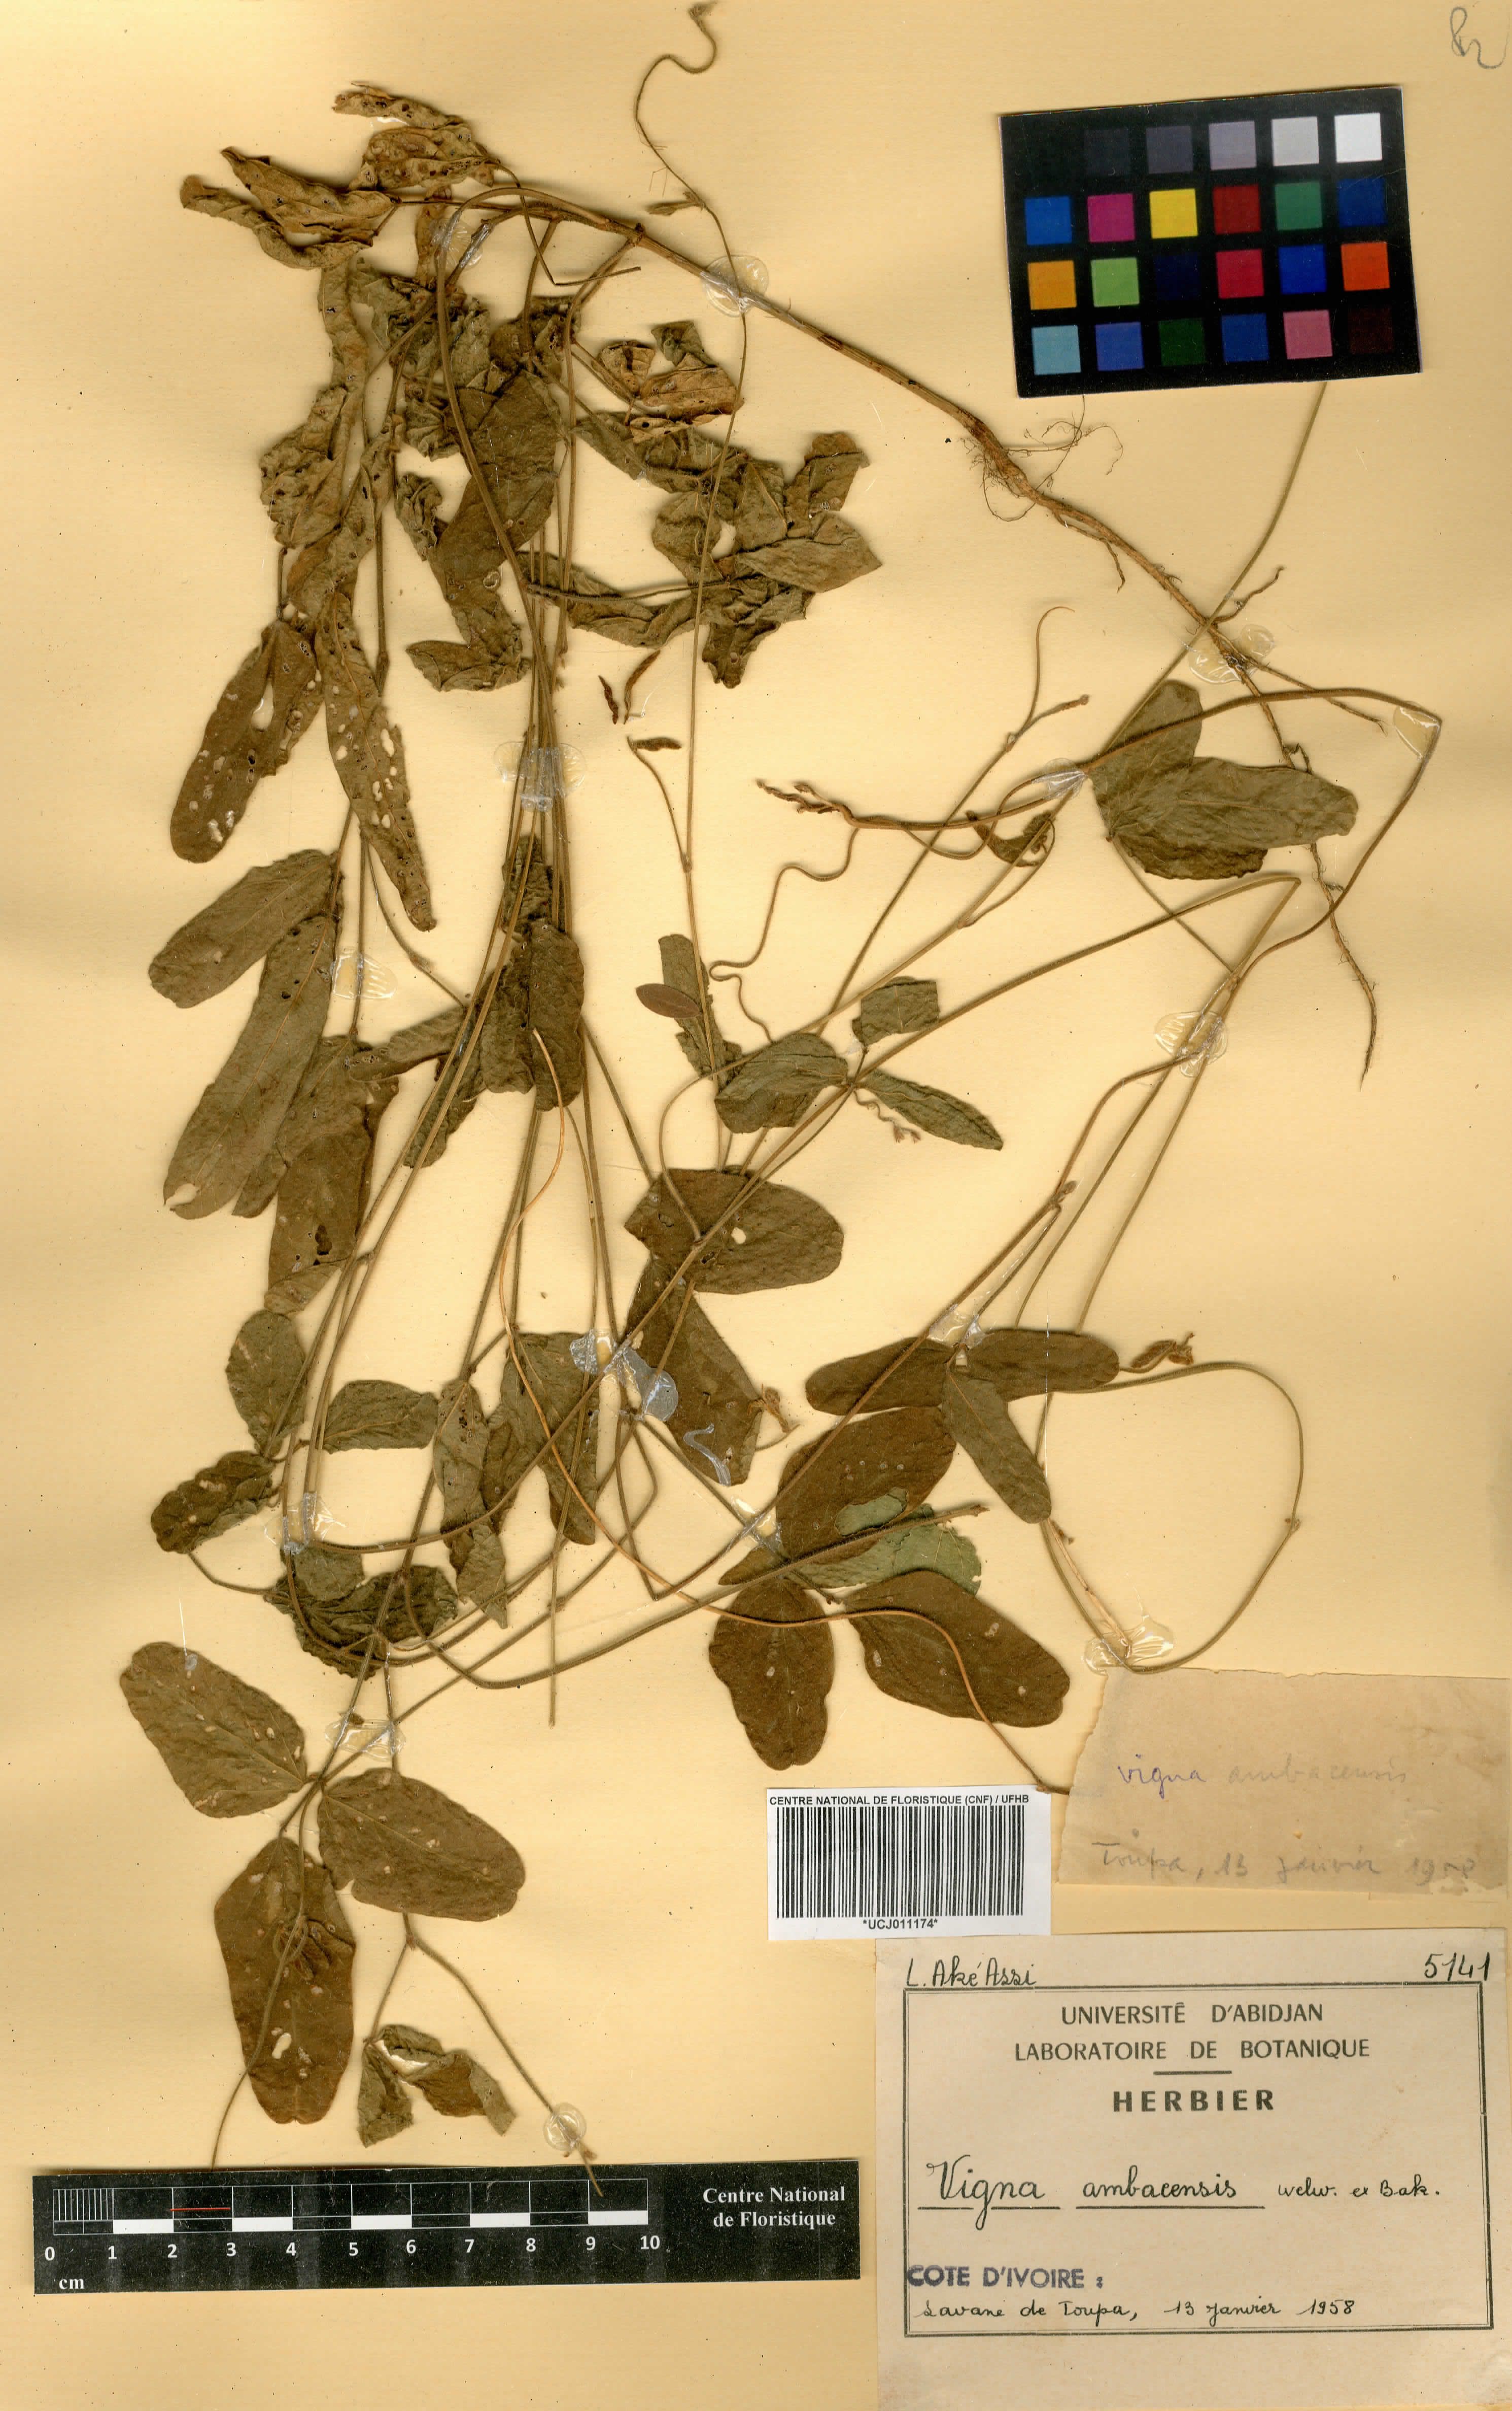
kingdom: Plantae
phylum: Tracheophyta
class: Magnoliopsida
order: Fabales
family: Fabaceae
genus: Vigna
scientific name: Vigna ambacensis
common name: Tsarkiyan zomo
